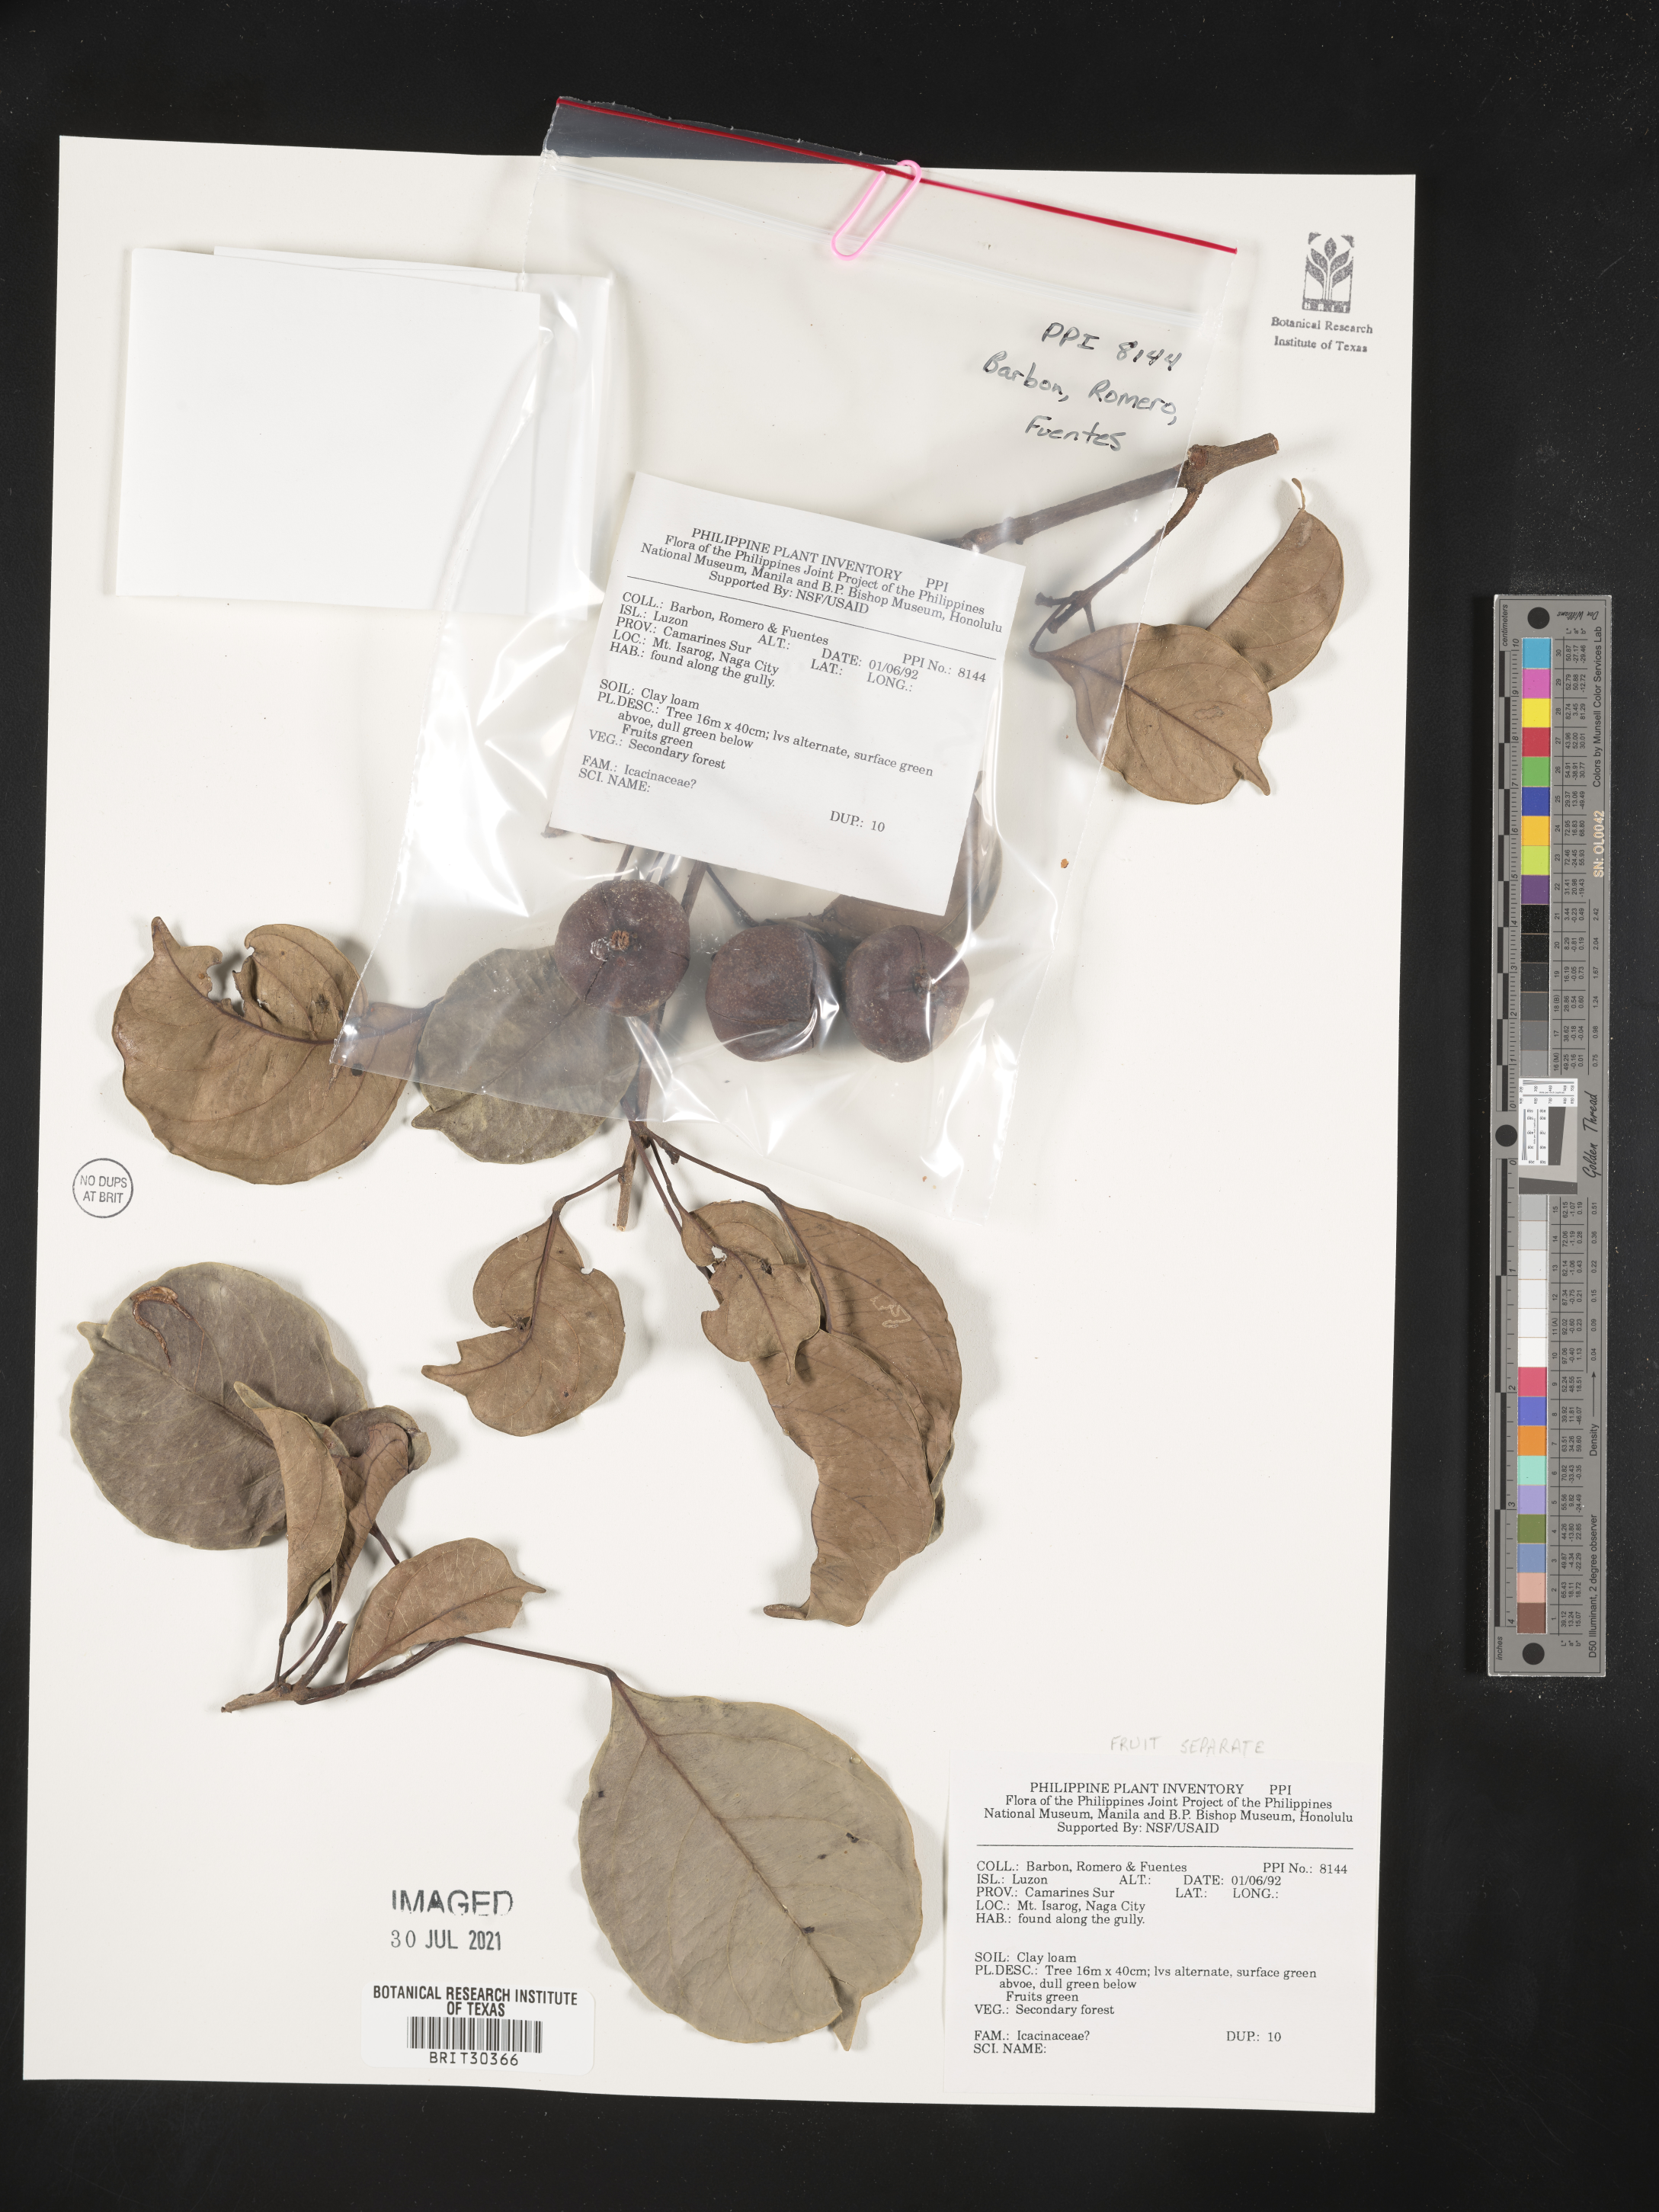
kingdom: Plantae
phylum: Tracheophyta
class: Magnoliopsida
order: Icacinales
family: Icacinaceae
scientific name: Icacinaceae
